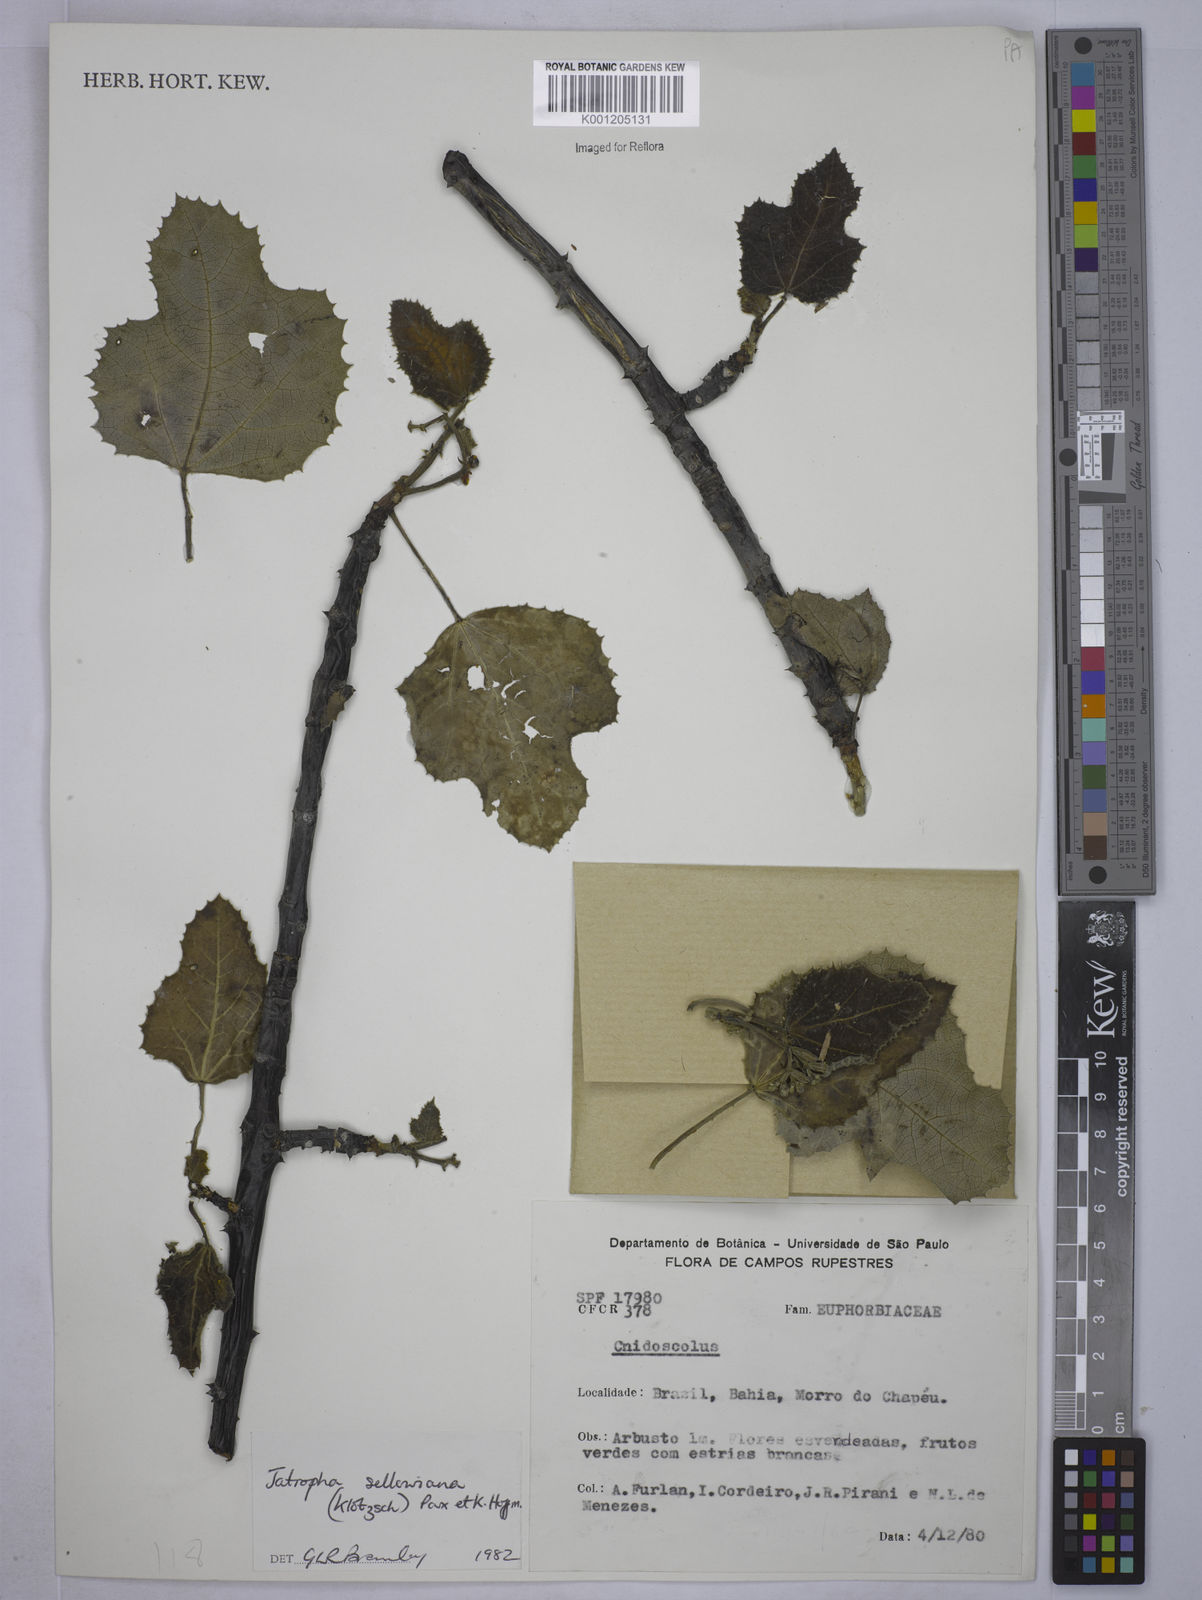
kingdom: Plantae
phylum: Tracheophyta
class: Magnoliopsida
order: Malpighiales
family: Euphorbiaceae
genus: Cnidoscolus
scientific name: Cnidoscolus sellowianus
